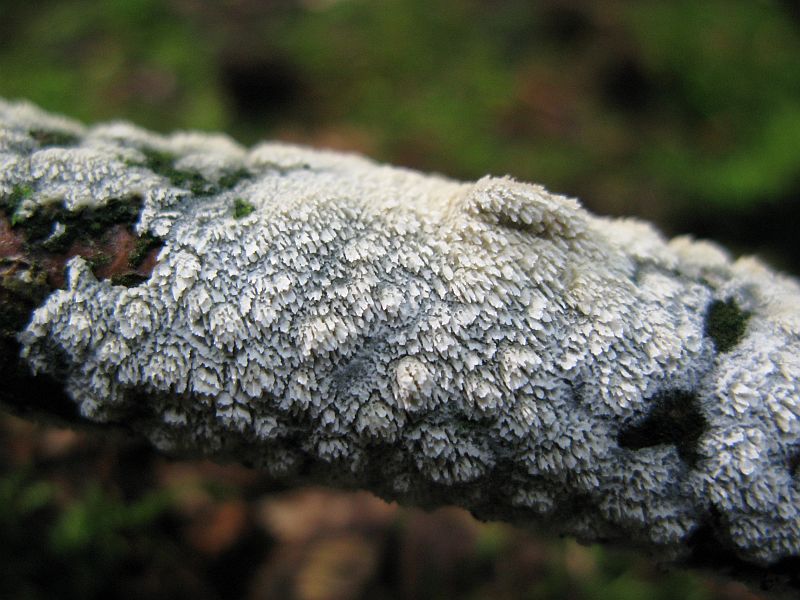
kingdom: Fungi
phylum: Basidiomycota
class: Agaricomycetes
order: Hymenochaetales
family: Schizoporaceae
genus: Schizopora
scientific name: Schizopora paradoxa
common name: hvid tandsvamp
